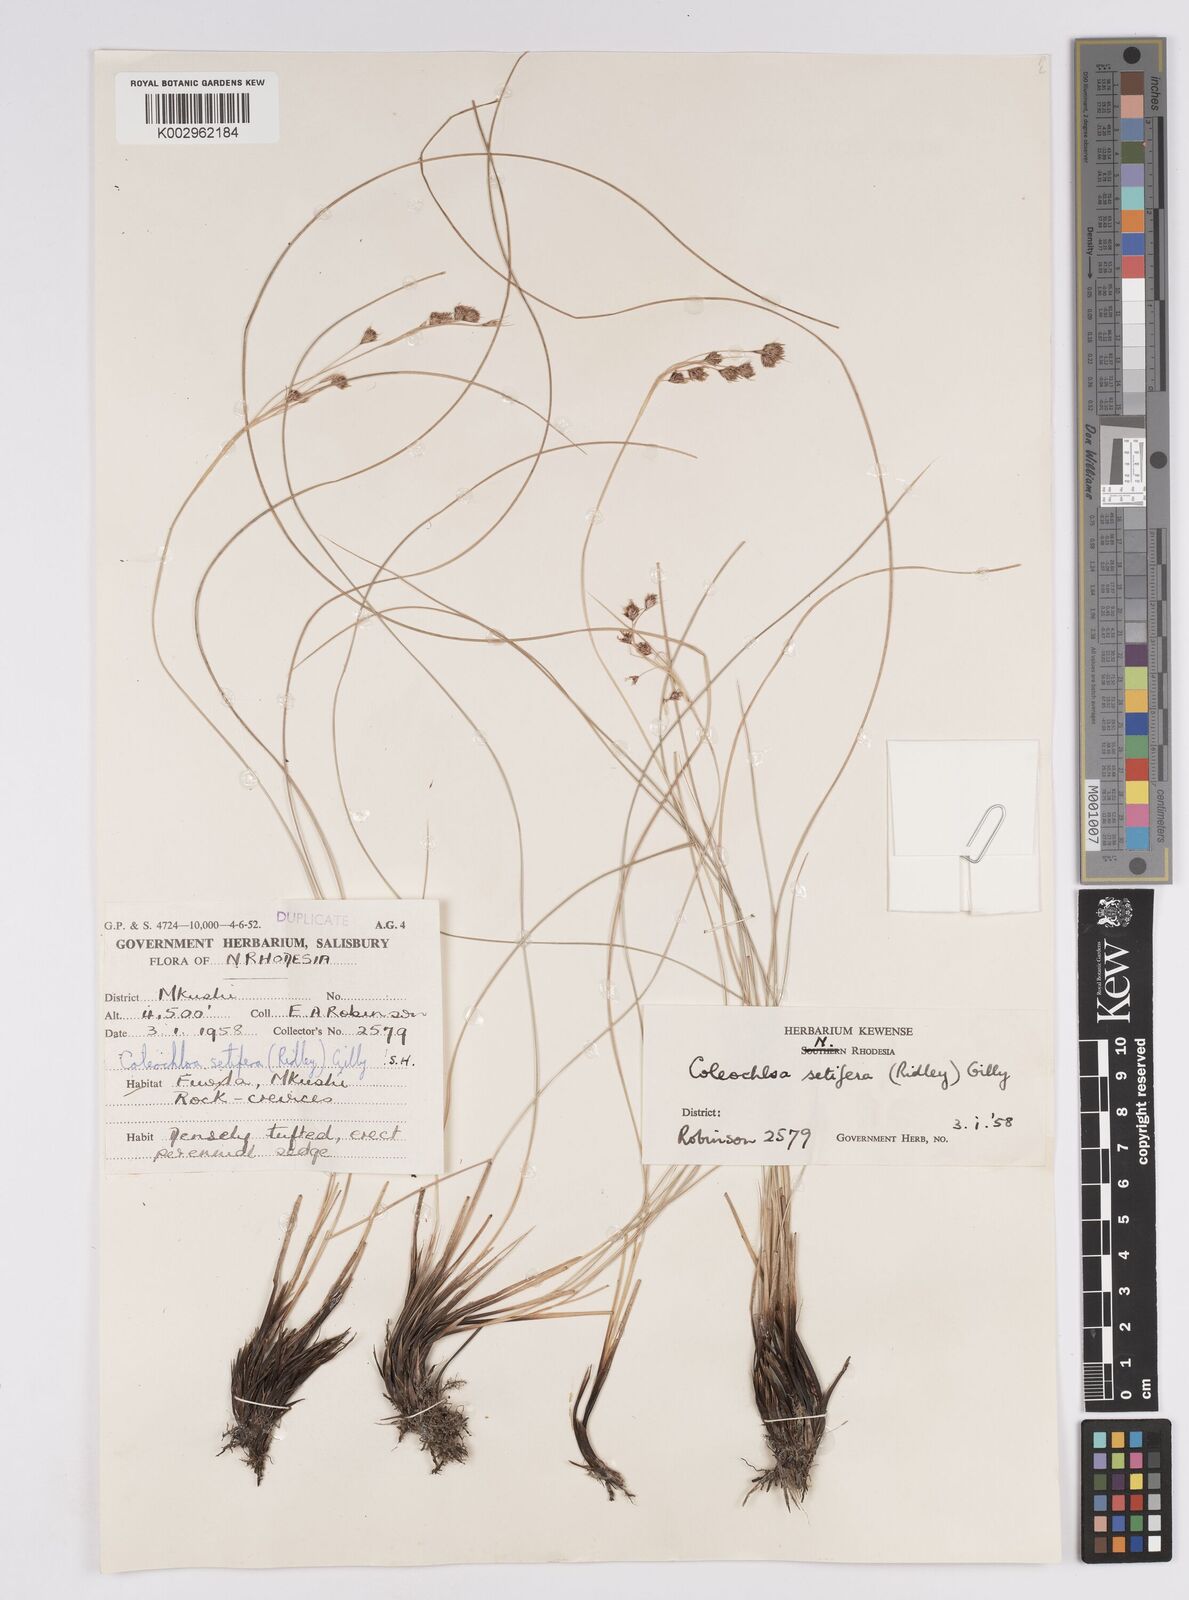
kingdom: Plantae
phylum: Tracheophyta
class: Liliopsida
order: Poales
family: Cyperaceae
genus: Coleochloa
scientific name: Coleochloa setifera
